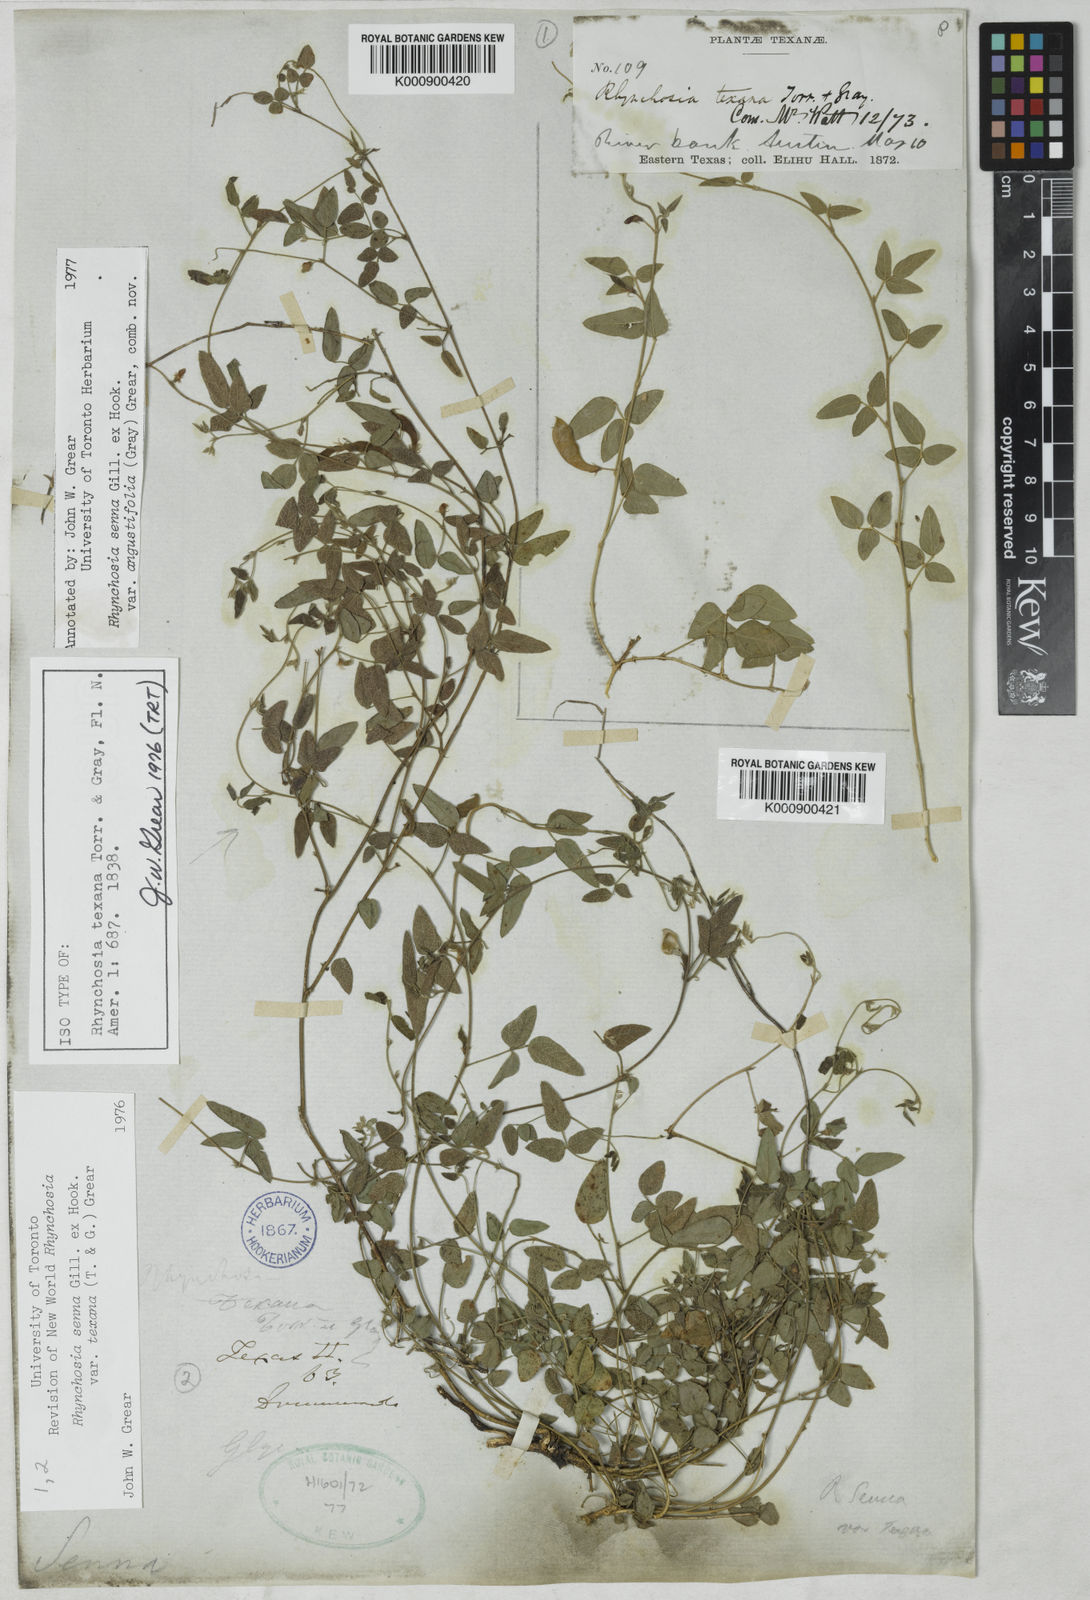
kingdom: Plantae
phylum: Tracheophyta
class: Magnoliopsida
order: Fabales
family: Fabaceae
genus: Rhynchosia
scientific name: Rhynchosia senna
